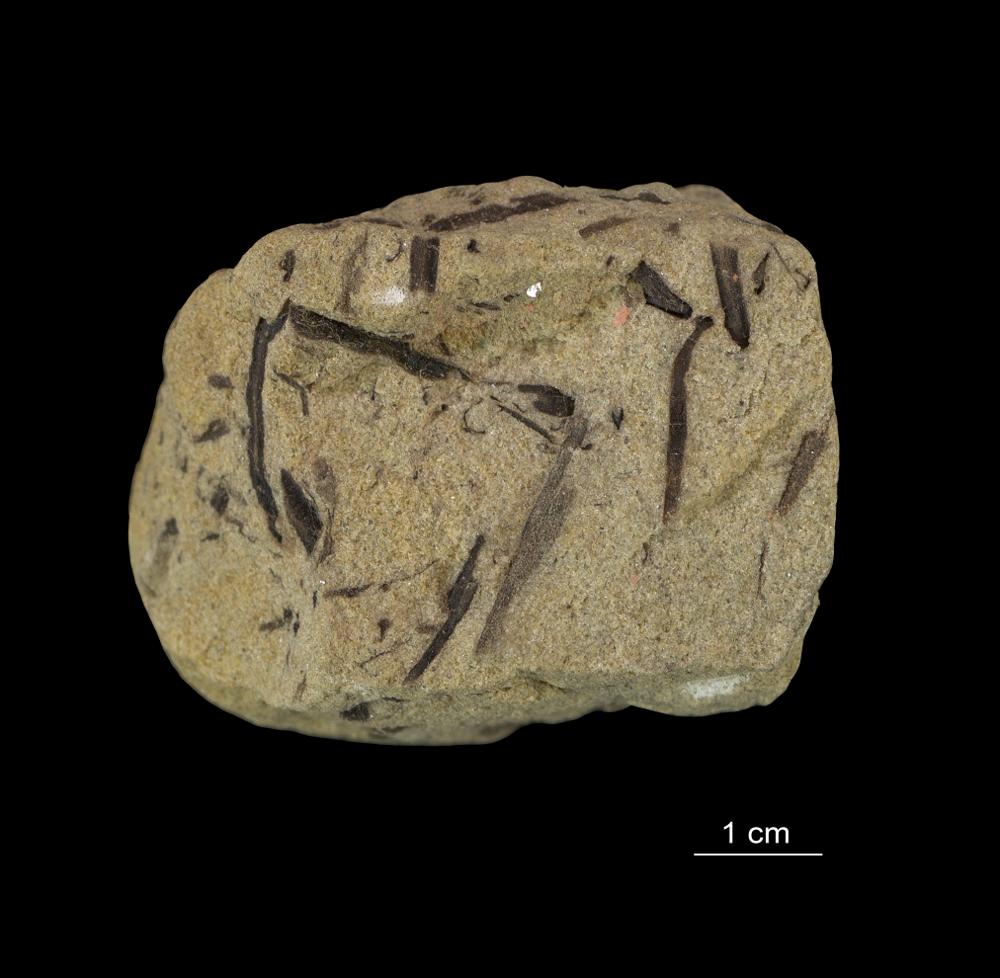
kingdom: Plantae
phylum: Tracheophyta
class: Lycopodiopsida
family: Asteroxylaceae
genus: Asteroxylon
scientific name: Asteroxylon
